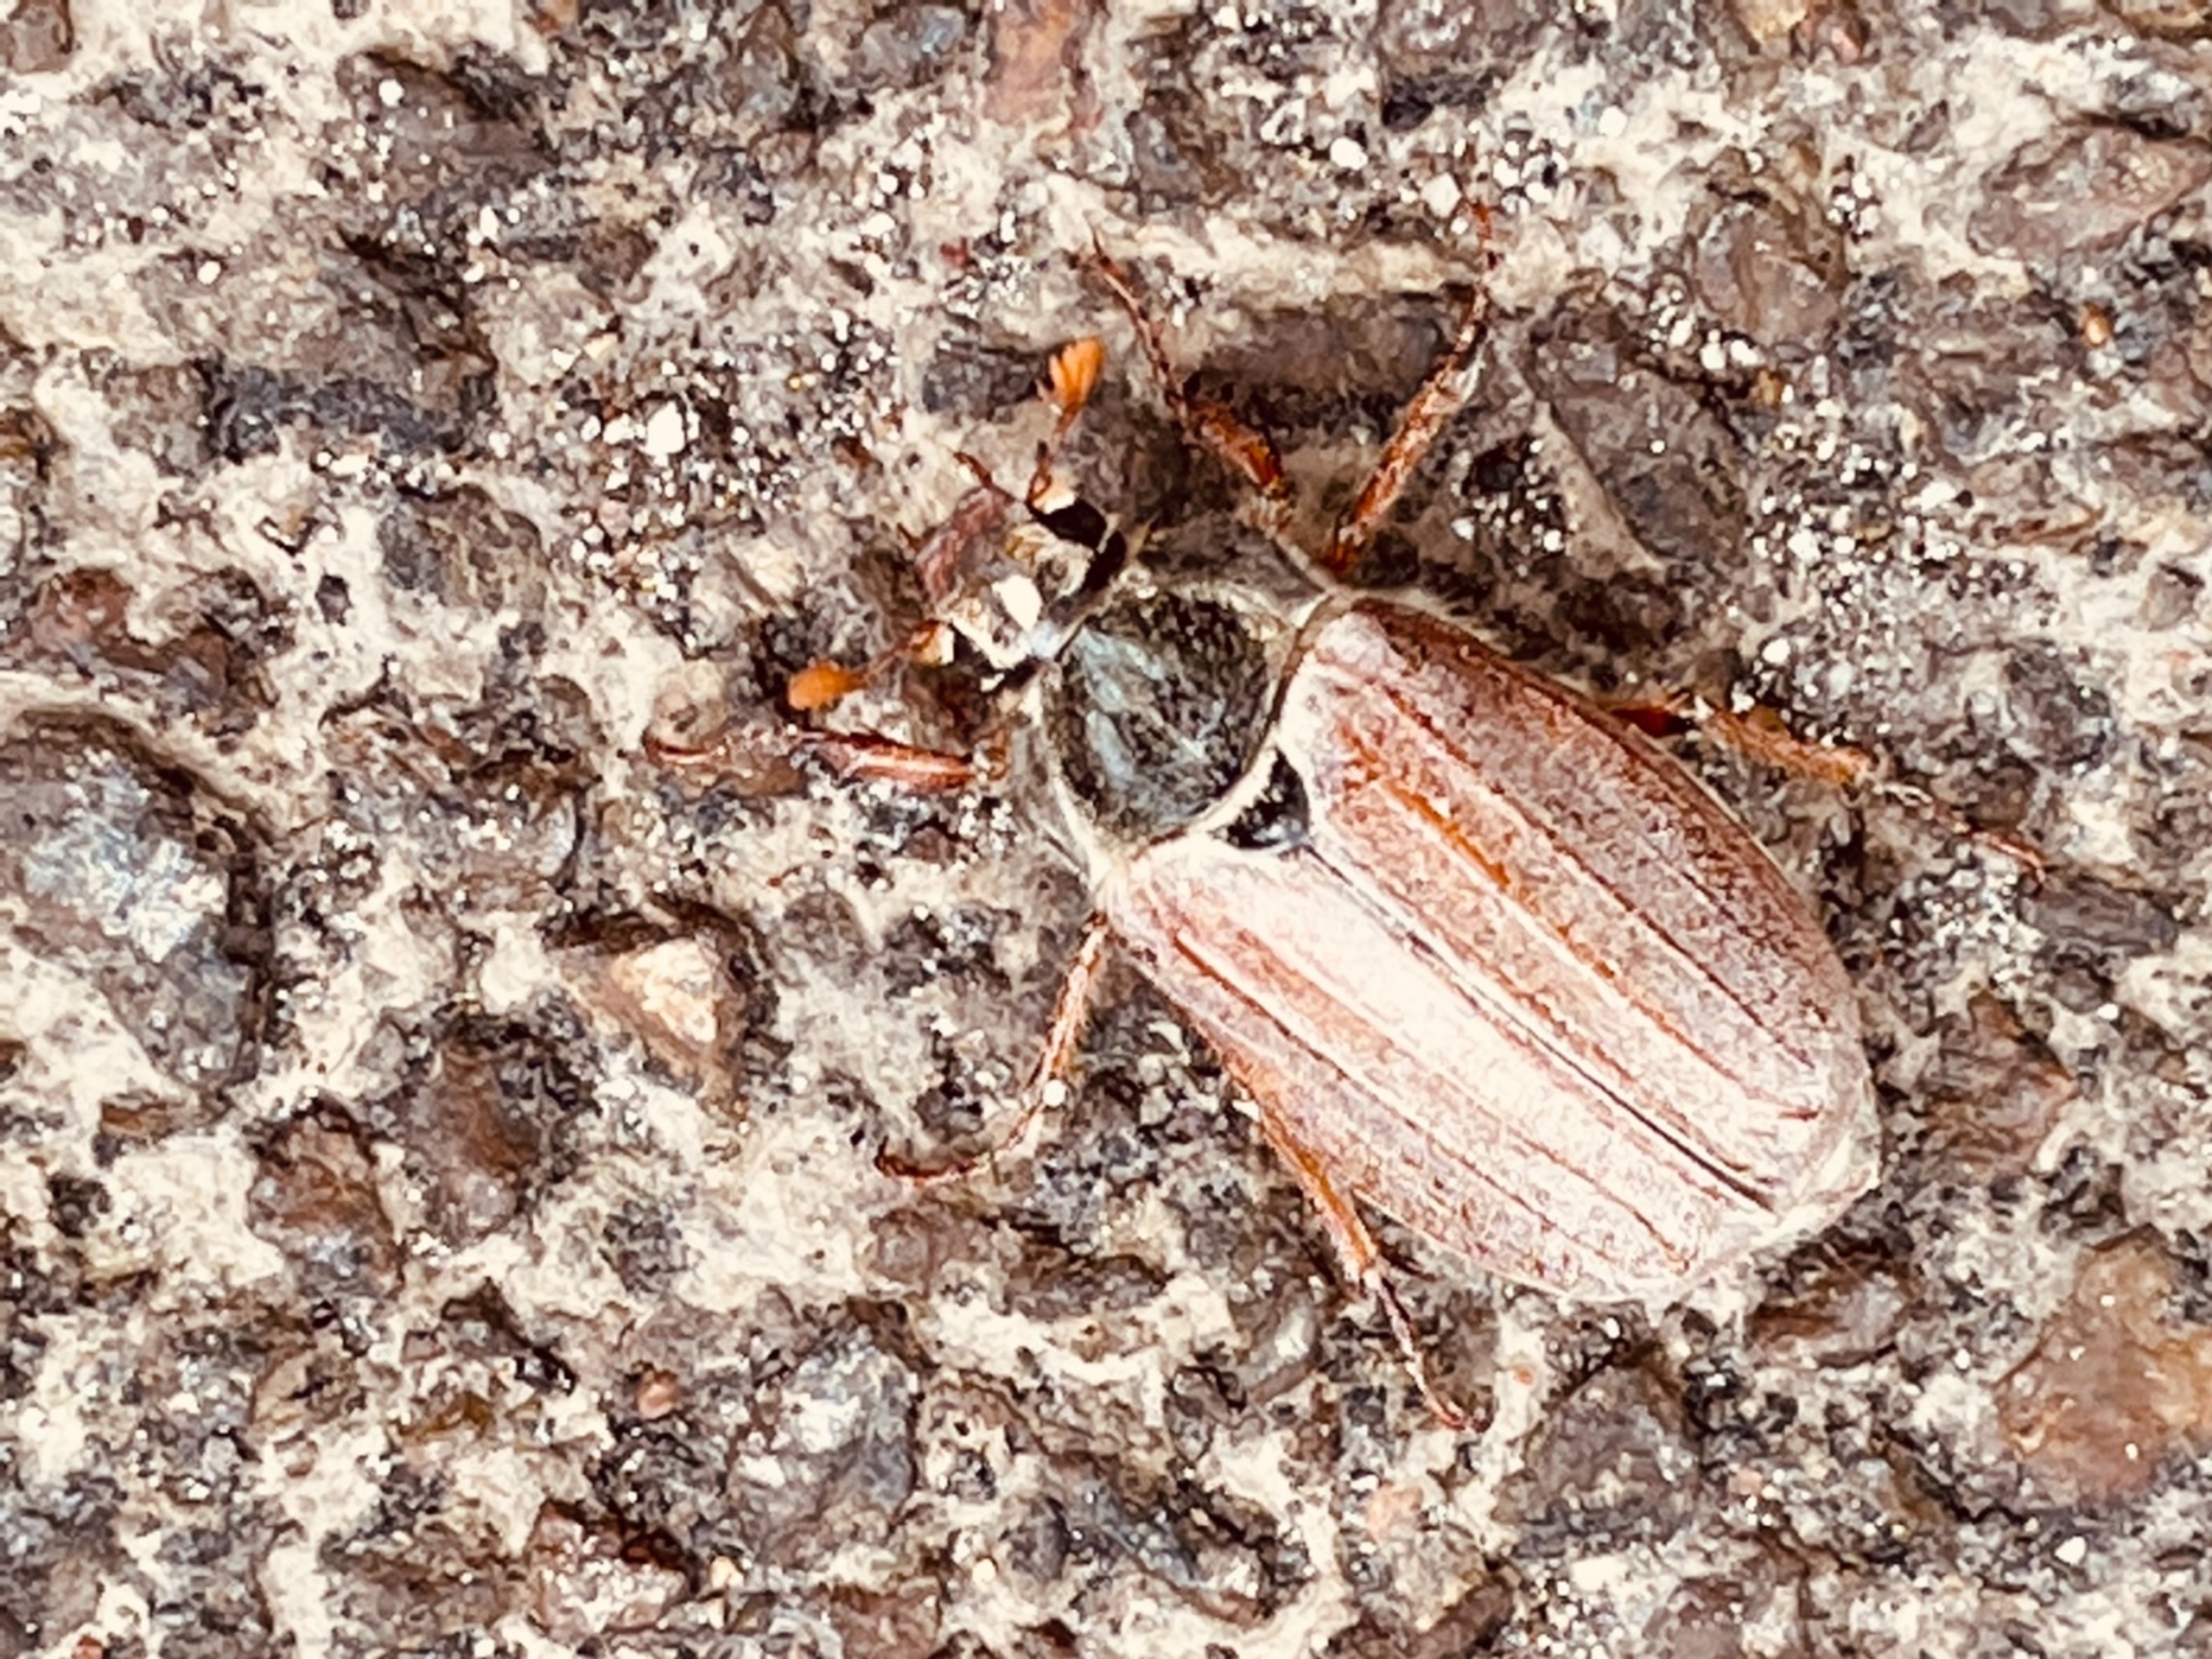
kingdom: Animalia
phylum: Arthropoda
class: Insecta
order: Coleoptera
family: Scarabaeidae
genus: Melolontha
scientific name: Melolontha melolontha
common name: Almindelig oldenborre
